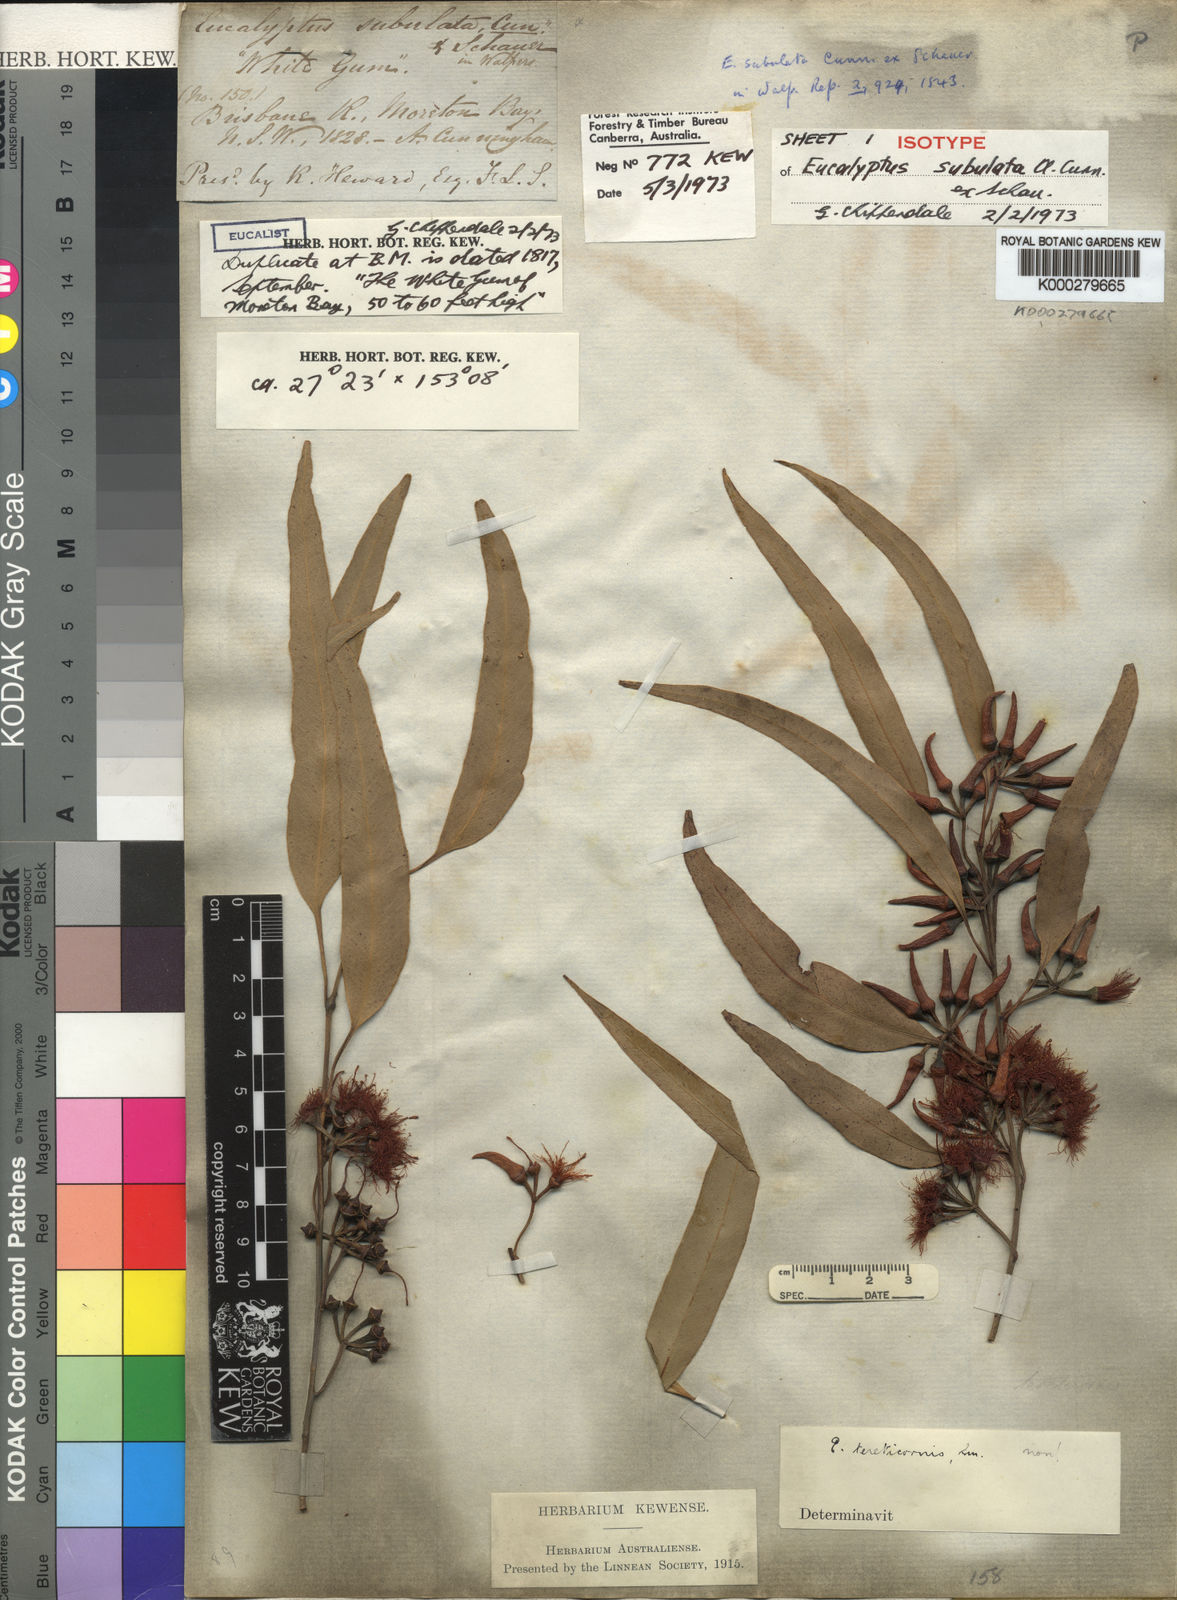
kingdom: Plantae
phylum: Tracheophyta
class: Magnoliopsida
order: Myrtales
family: Myrtaceae
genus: Eucalyptus
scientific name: Eucalyptus tereticornis
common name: Forest redgum
